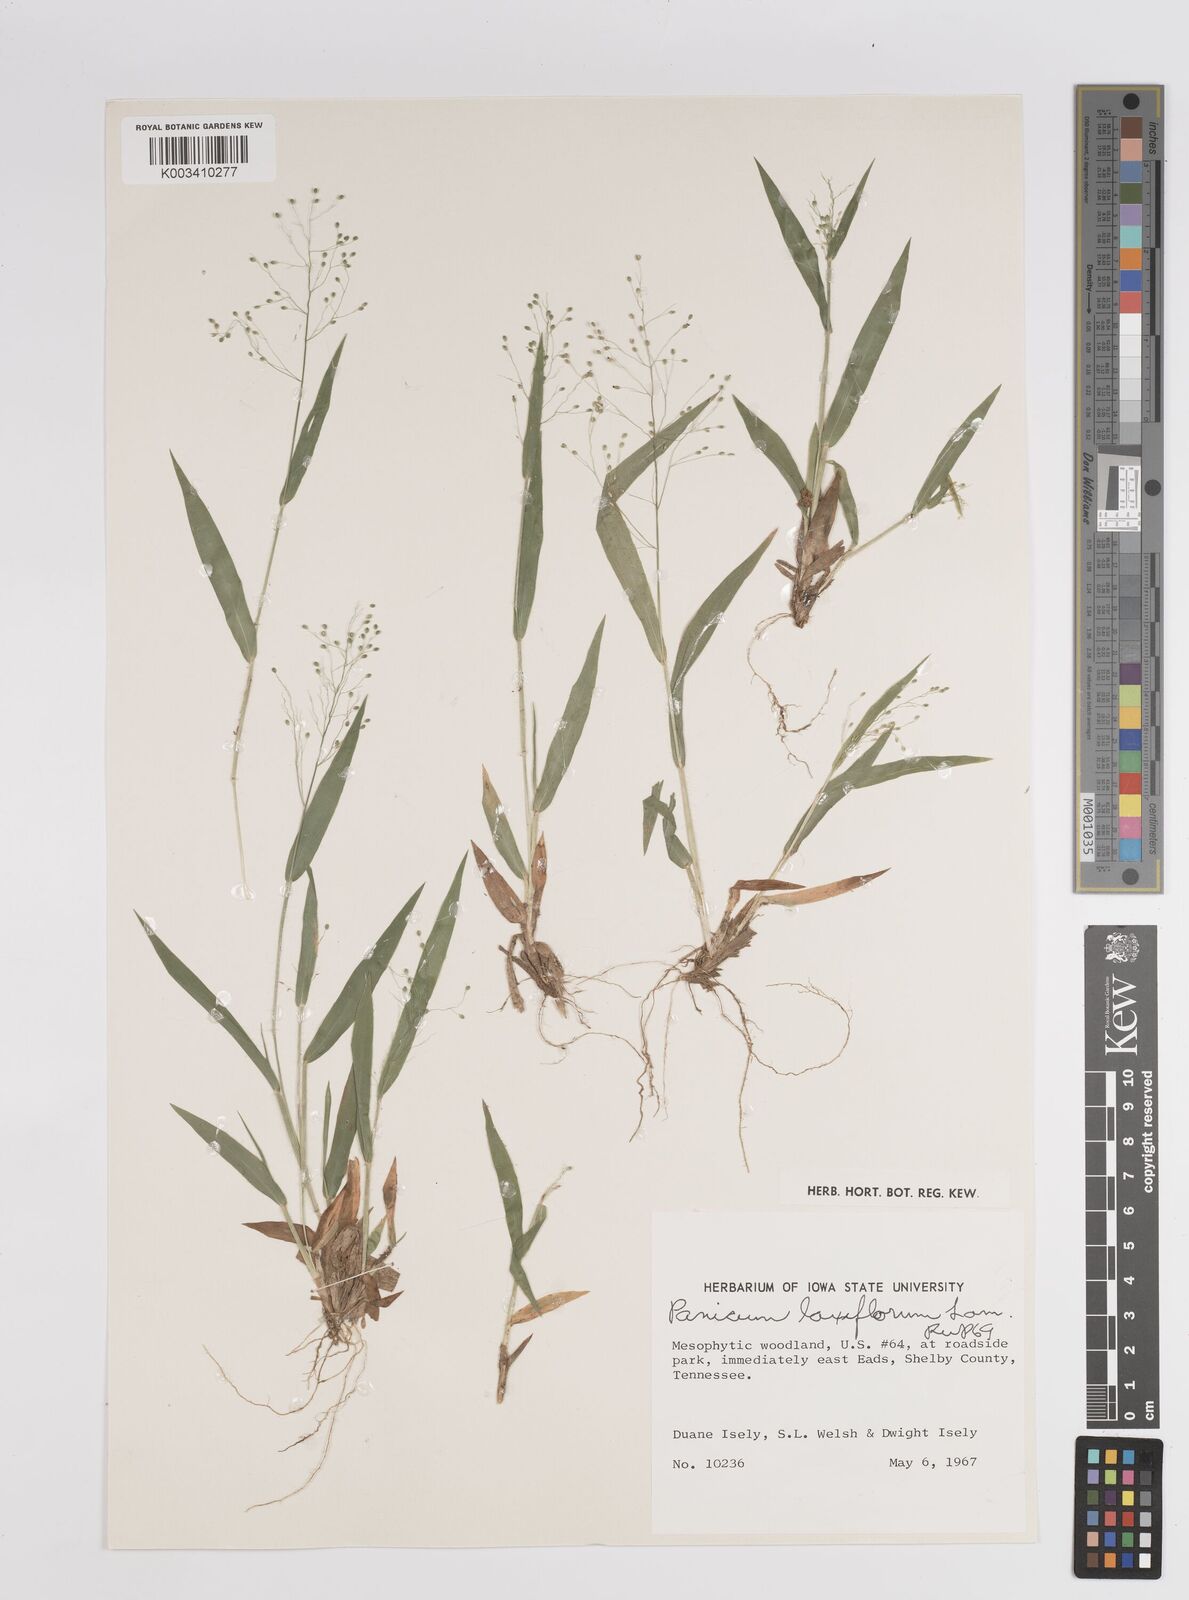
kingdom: Plantae
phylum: Tracheophyta
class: Liliopsida
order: Poales
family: Poaceae
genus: Dichanthelium
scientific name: Dichanthelium laxiflorum
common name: Soft-tuft panic grass
